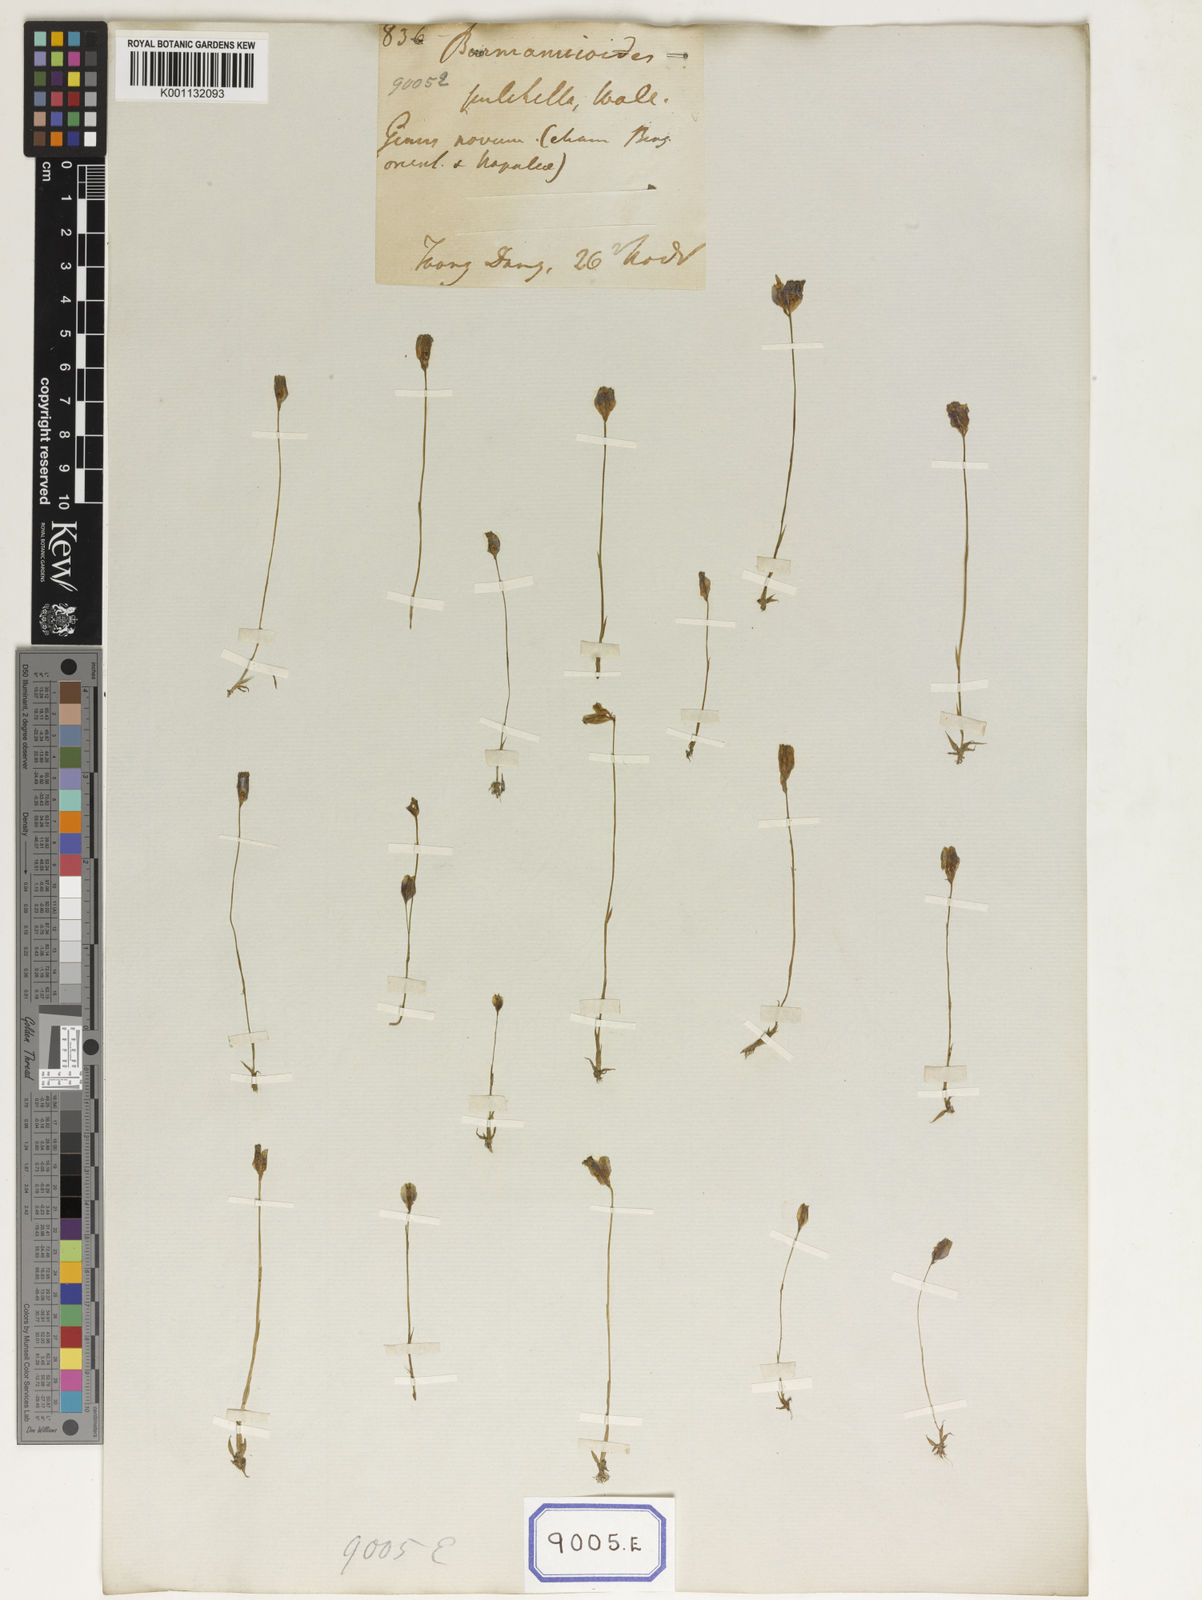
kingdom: Plantae
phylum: Tracheophyta
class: Liliopsida
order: Dioscoreales
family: Burmanniaceae
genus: Burmannia
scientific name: Burmannia
